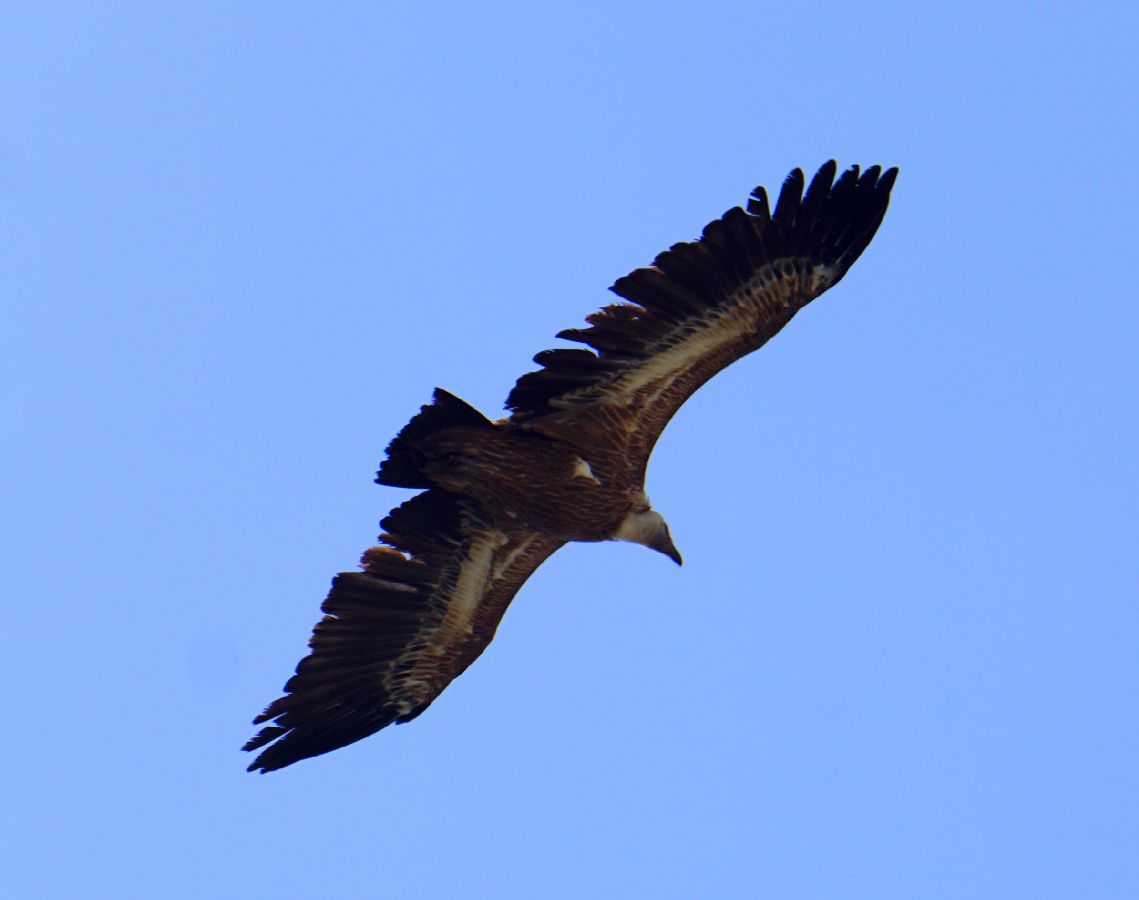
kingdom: Animalia
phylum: Chordata
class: Aves
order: Accipitriformes
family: Accipitridae
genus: Gyps
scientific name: Gyps fulvus
